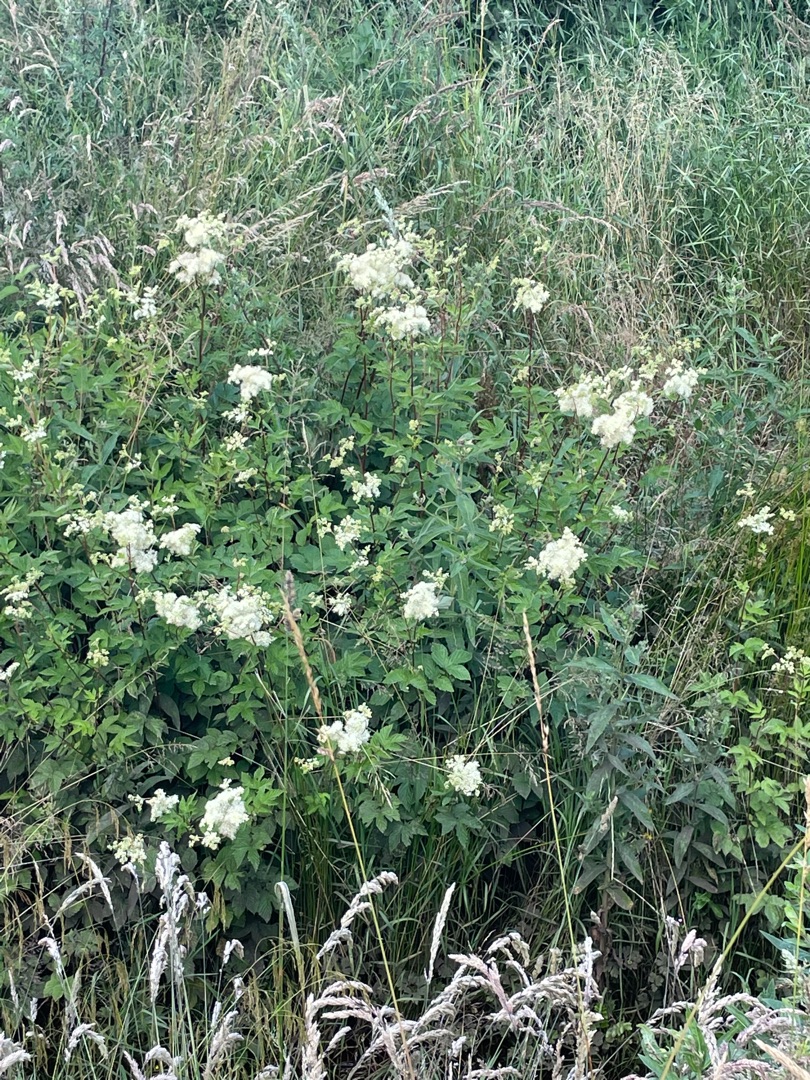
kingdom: Plantae
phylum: Tracheophyta
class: Magnoliopsida
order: Rosales
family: Rosaceae
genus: Filipendula
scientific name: Filipendula ulmaria
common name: Almindelig mjødurt
